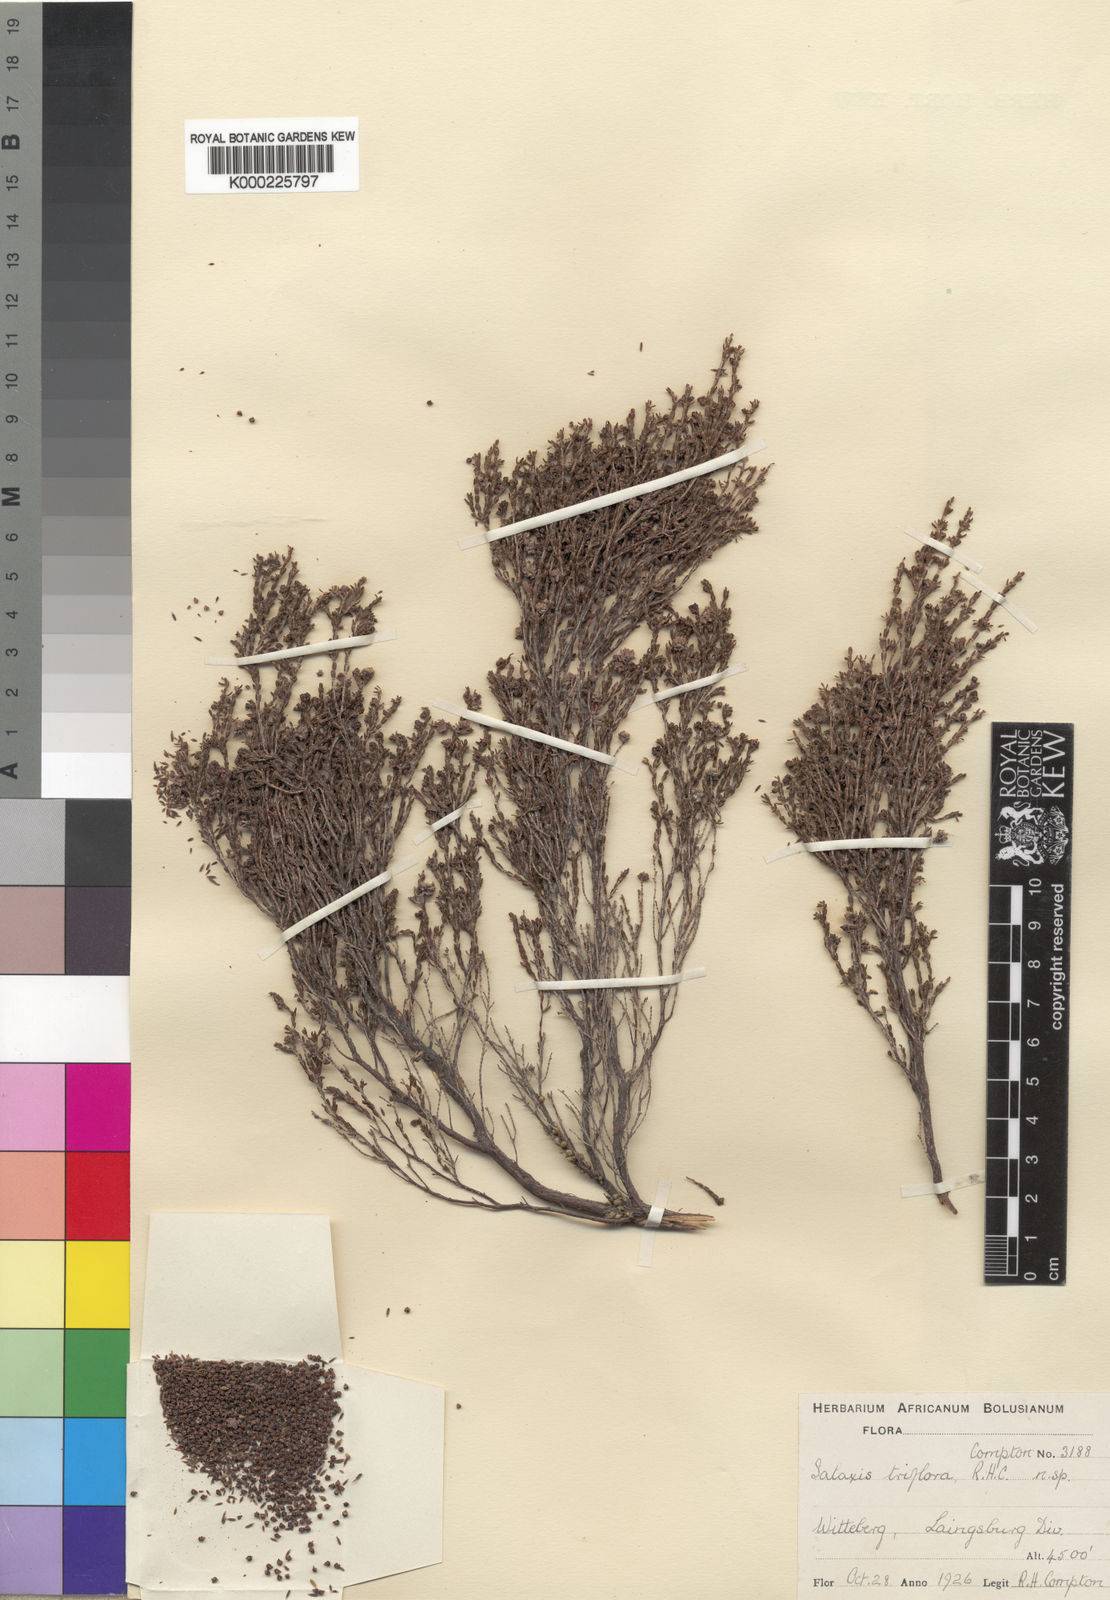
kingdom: Plantae
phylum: Tracheophyta
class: Magnoliopsida
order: Ericales
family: Ericaceae
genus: Erica
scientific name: Erica terniflora
